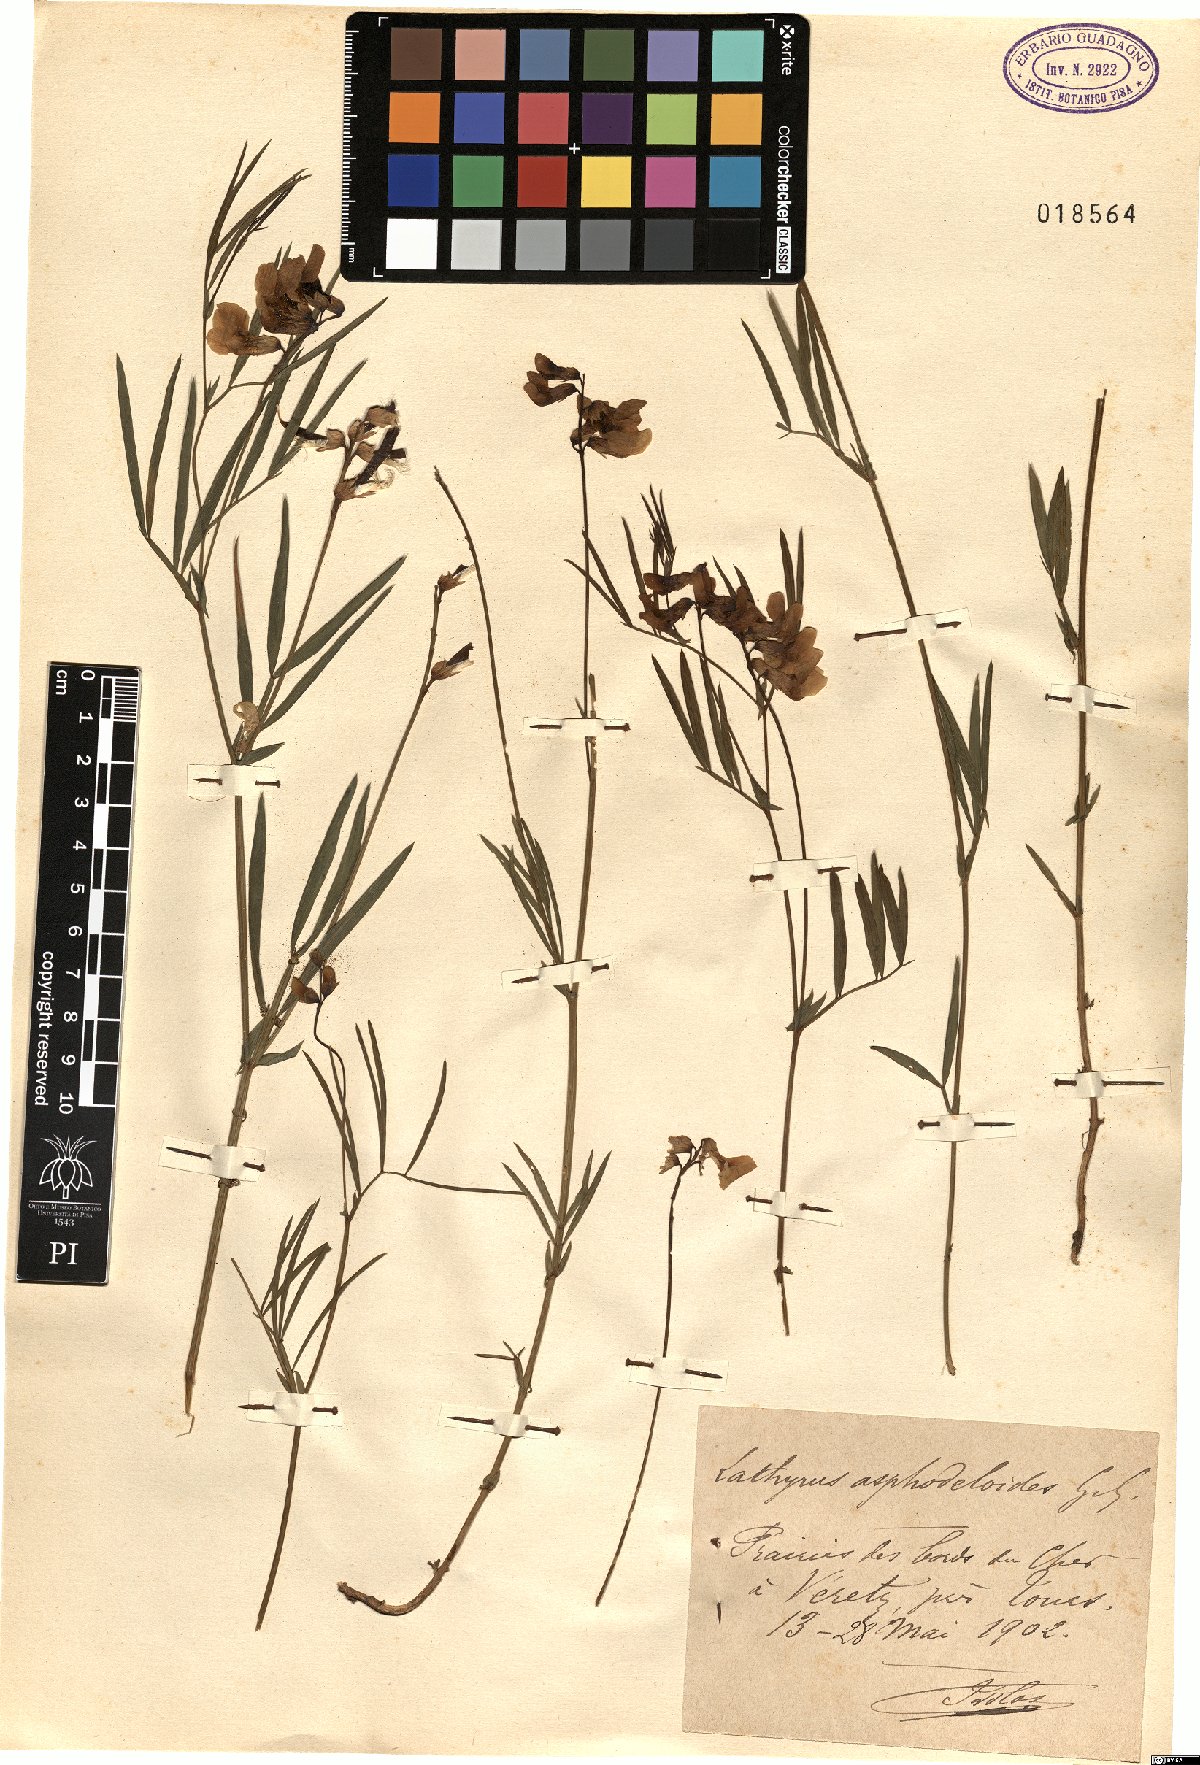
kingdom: Plantae
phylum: Tracheophyta
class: Magnoliopsida
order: Fabales
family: Fabaceae
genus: Lathyrus
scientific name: Lathyrus pannonicus
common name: Pea
